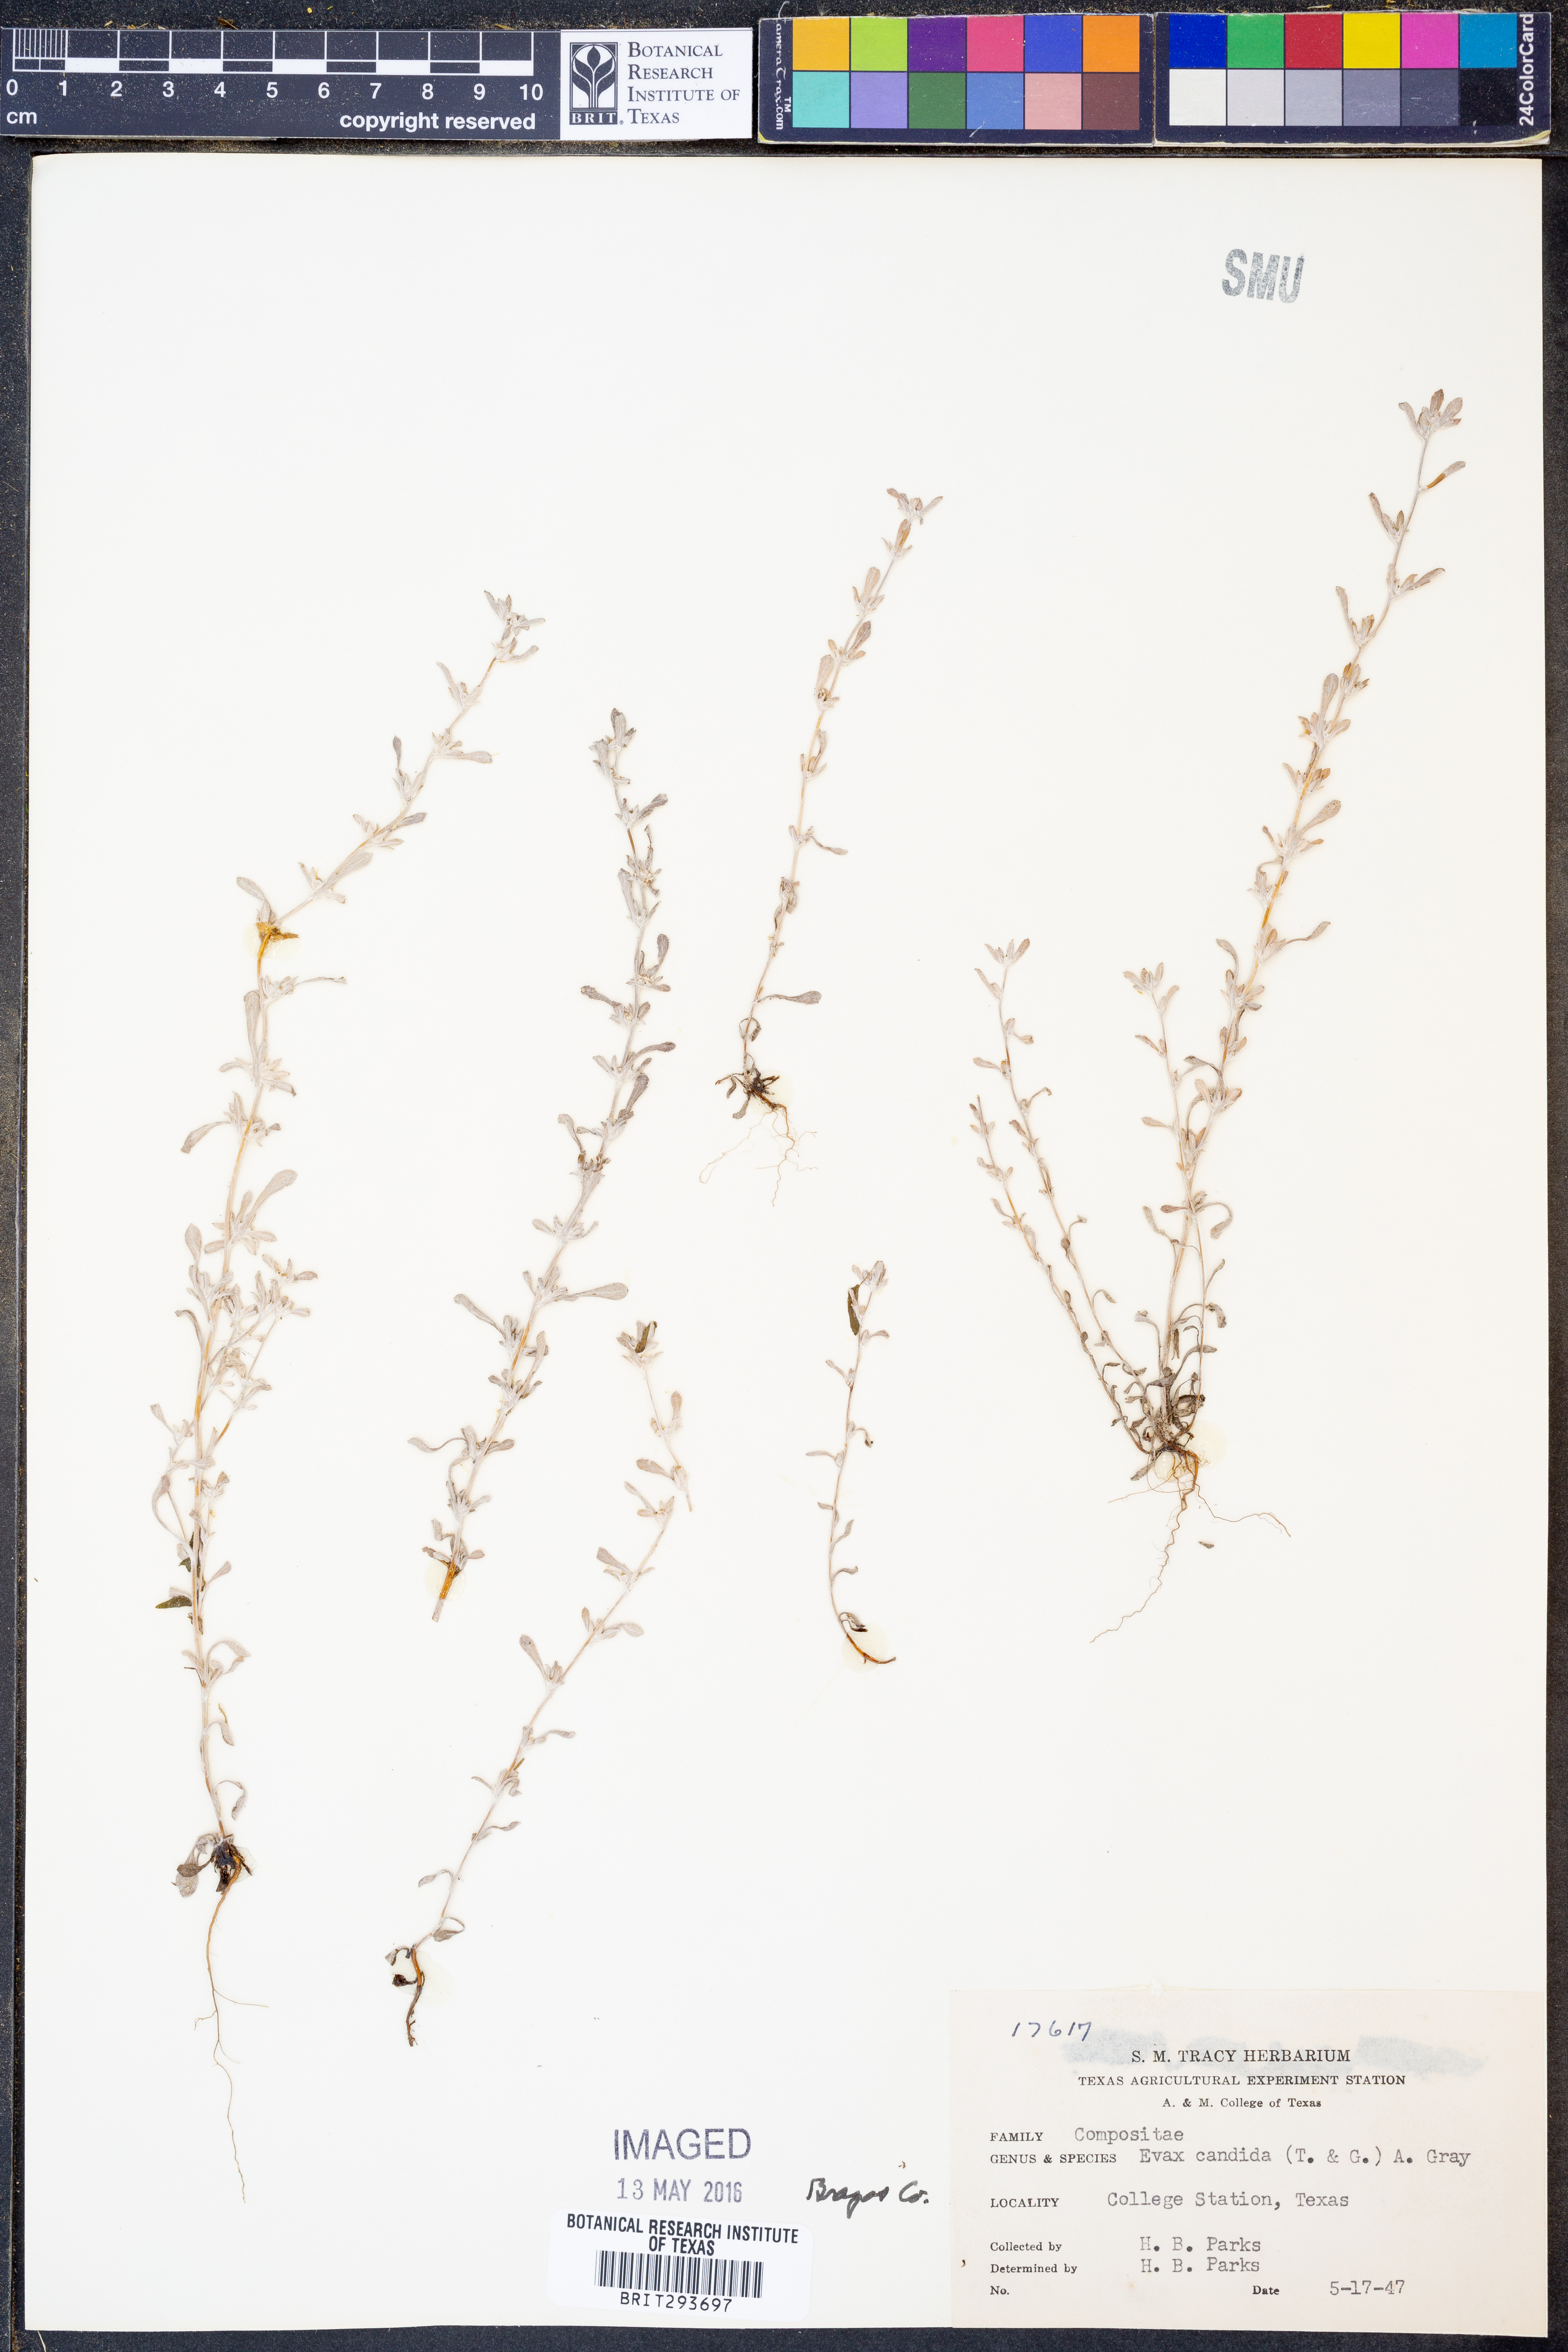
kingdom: Plantae
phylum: Tracheophyta
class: Magnoliopsida
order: Asterales
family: Asteraceae
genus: Diaperia
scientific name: Diaperia candida
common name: Silver rabbit-tobacco
